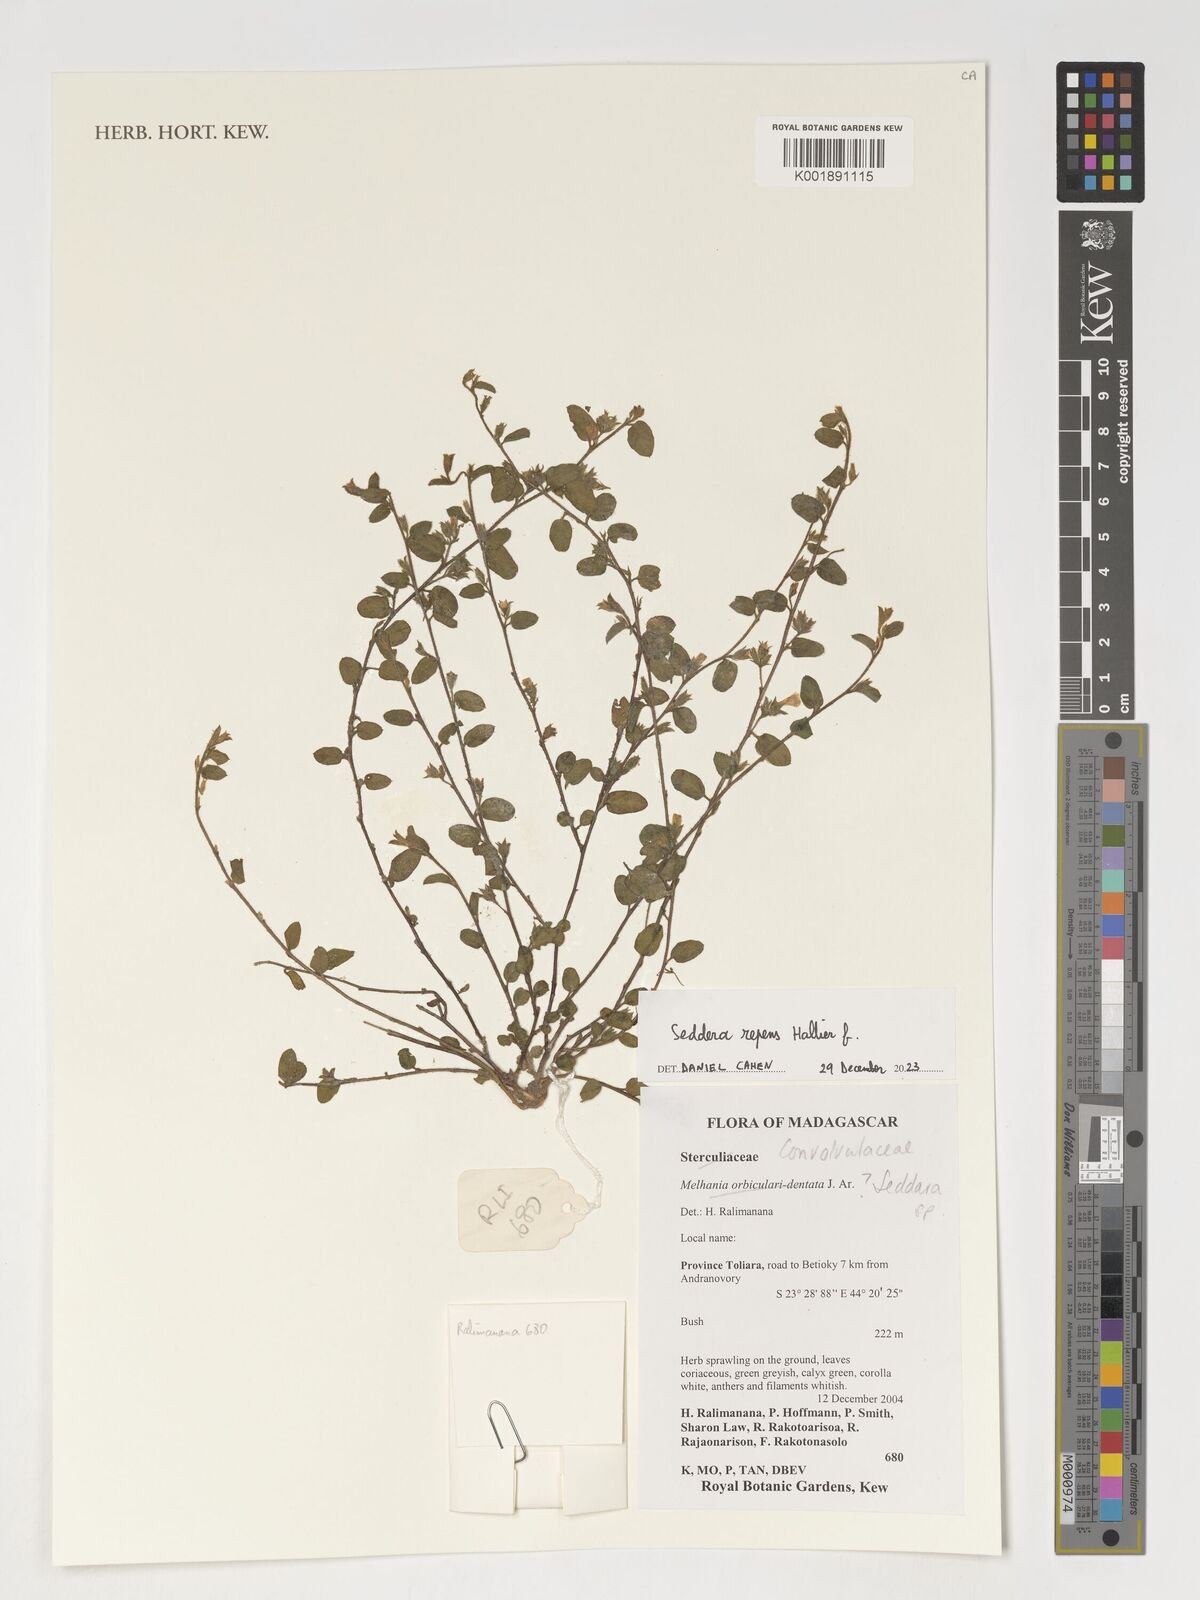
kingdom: Plantae
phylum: Tracheophyta
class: Magnoliopsida
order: Solanales
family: Convolvulaceae
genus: Seddera
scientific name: Seddera
